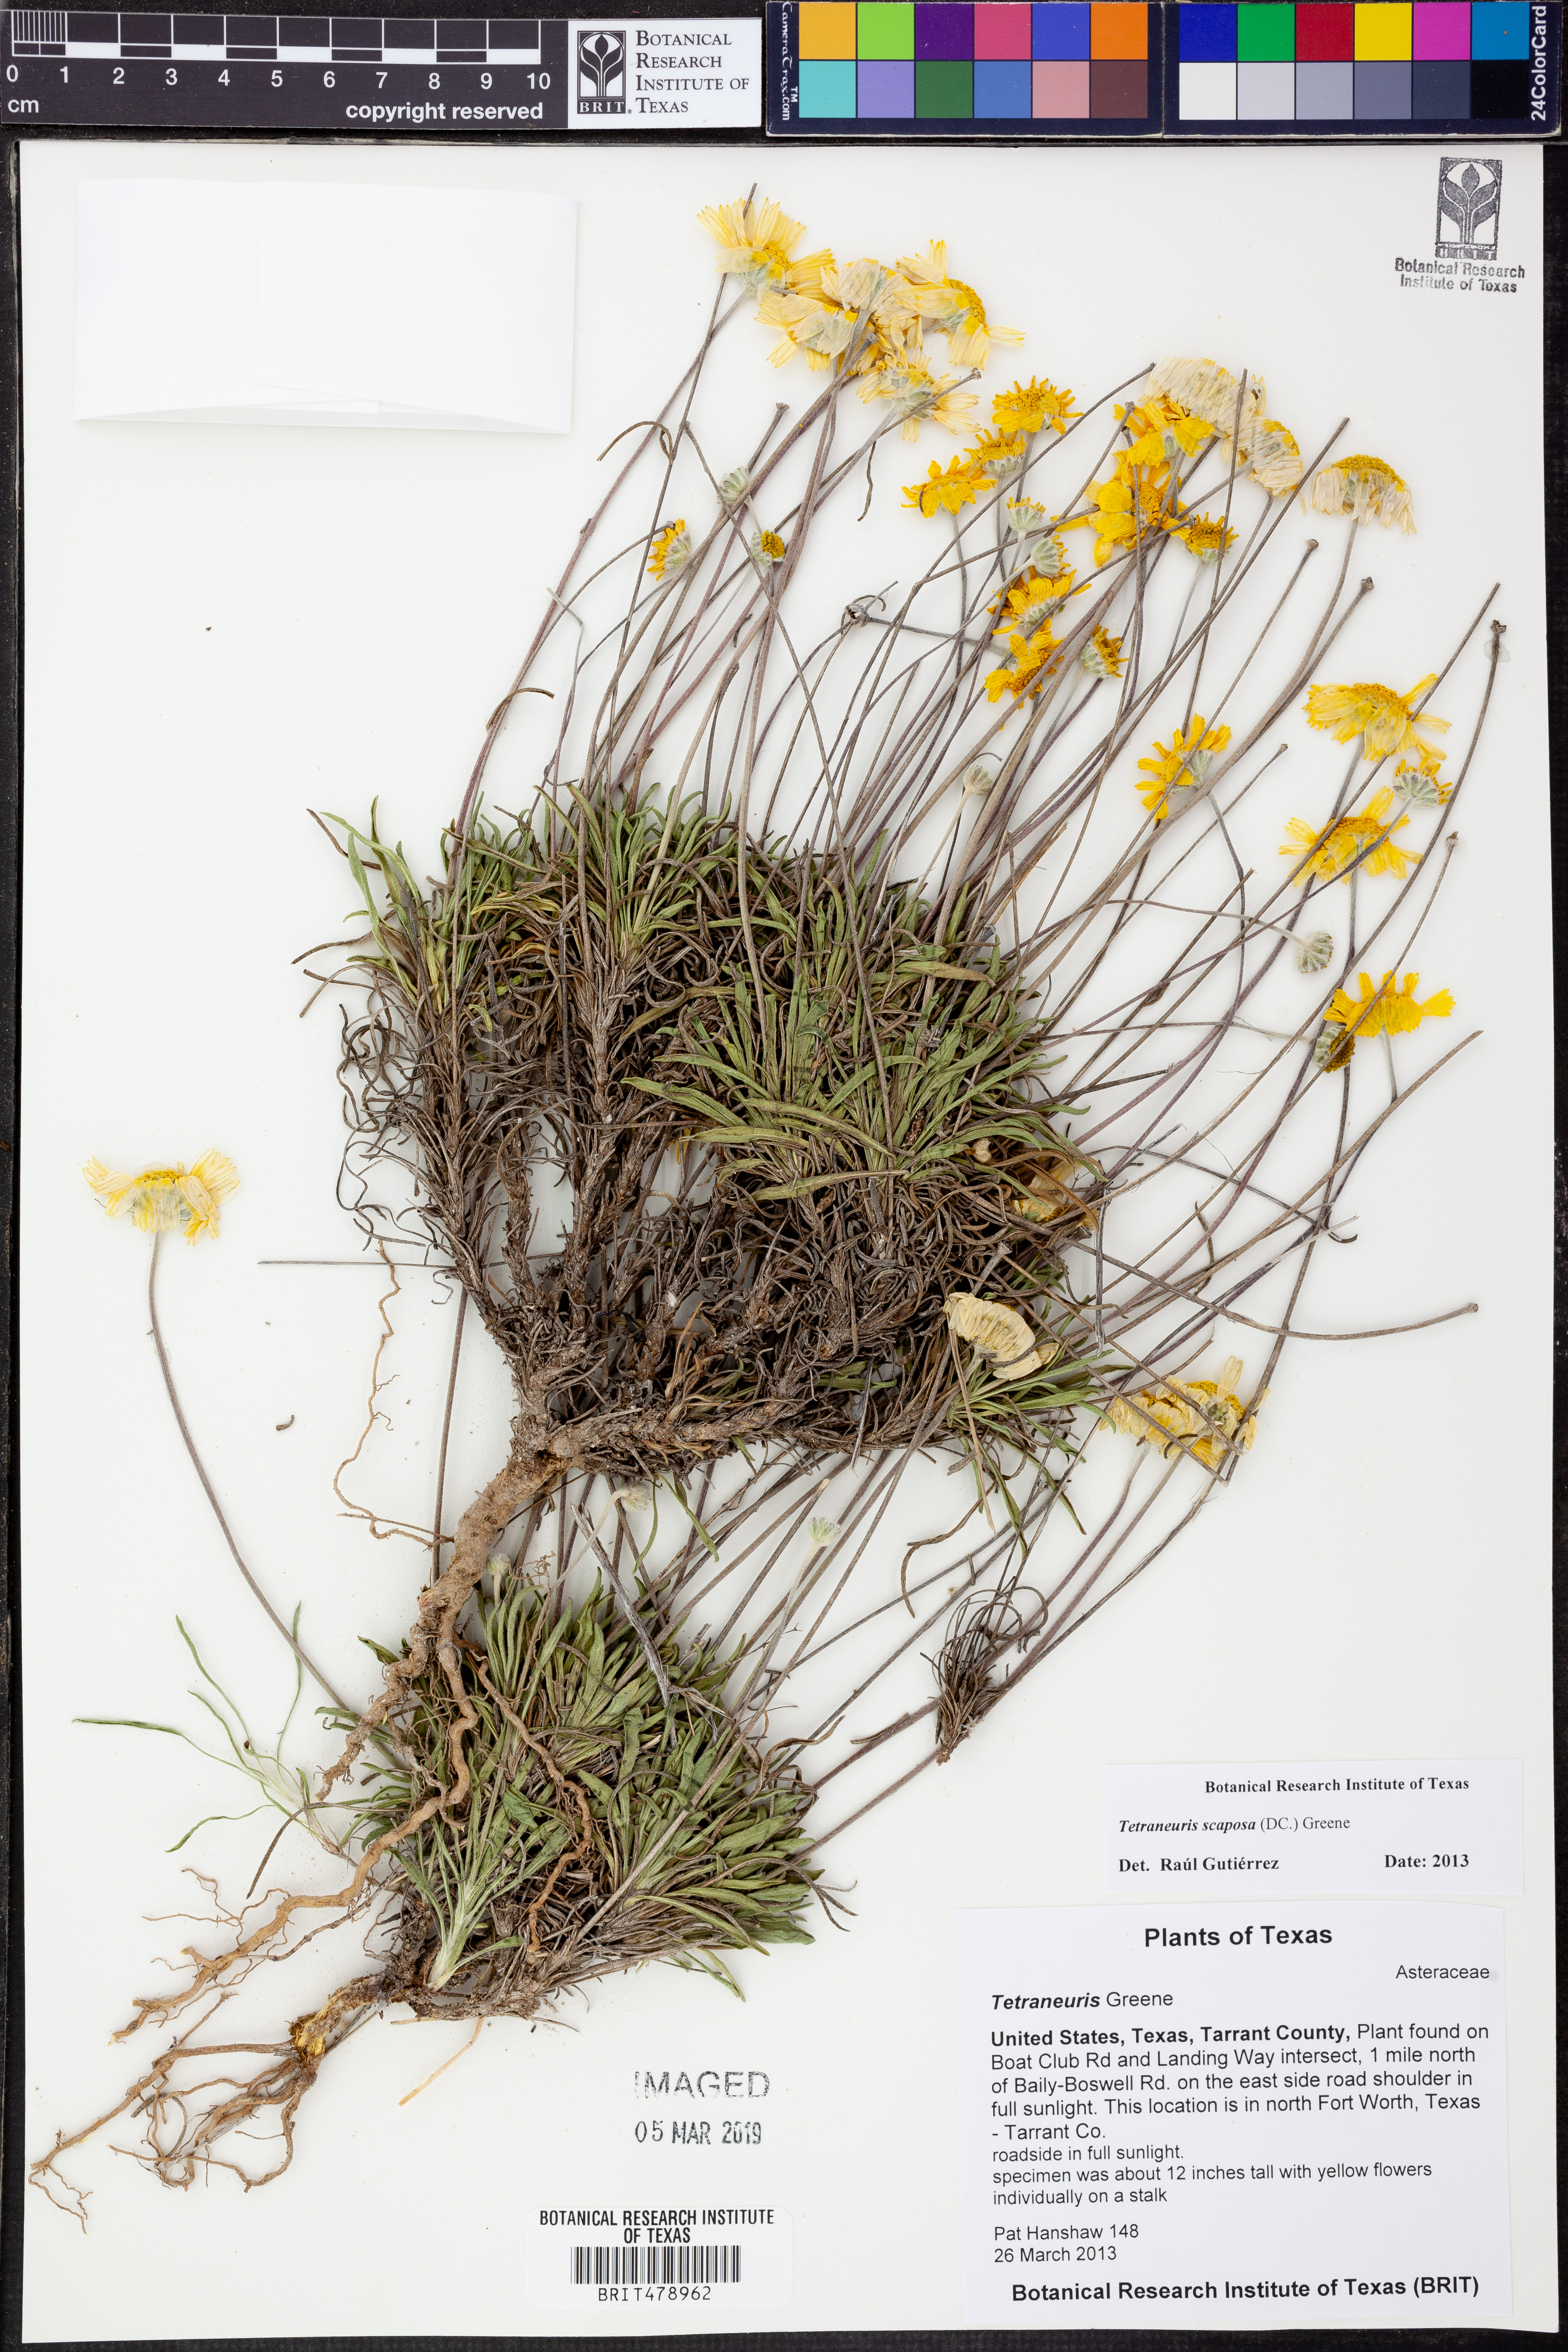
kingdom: Plantae
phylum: Tracheophyta
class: Magnoliopsida
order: Asterales
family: Asteraceae
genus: Tetraneuris
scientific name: Tetraneuris scaposa
